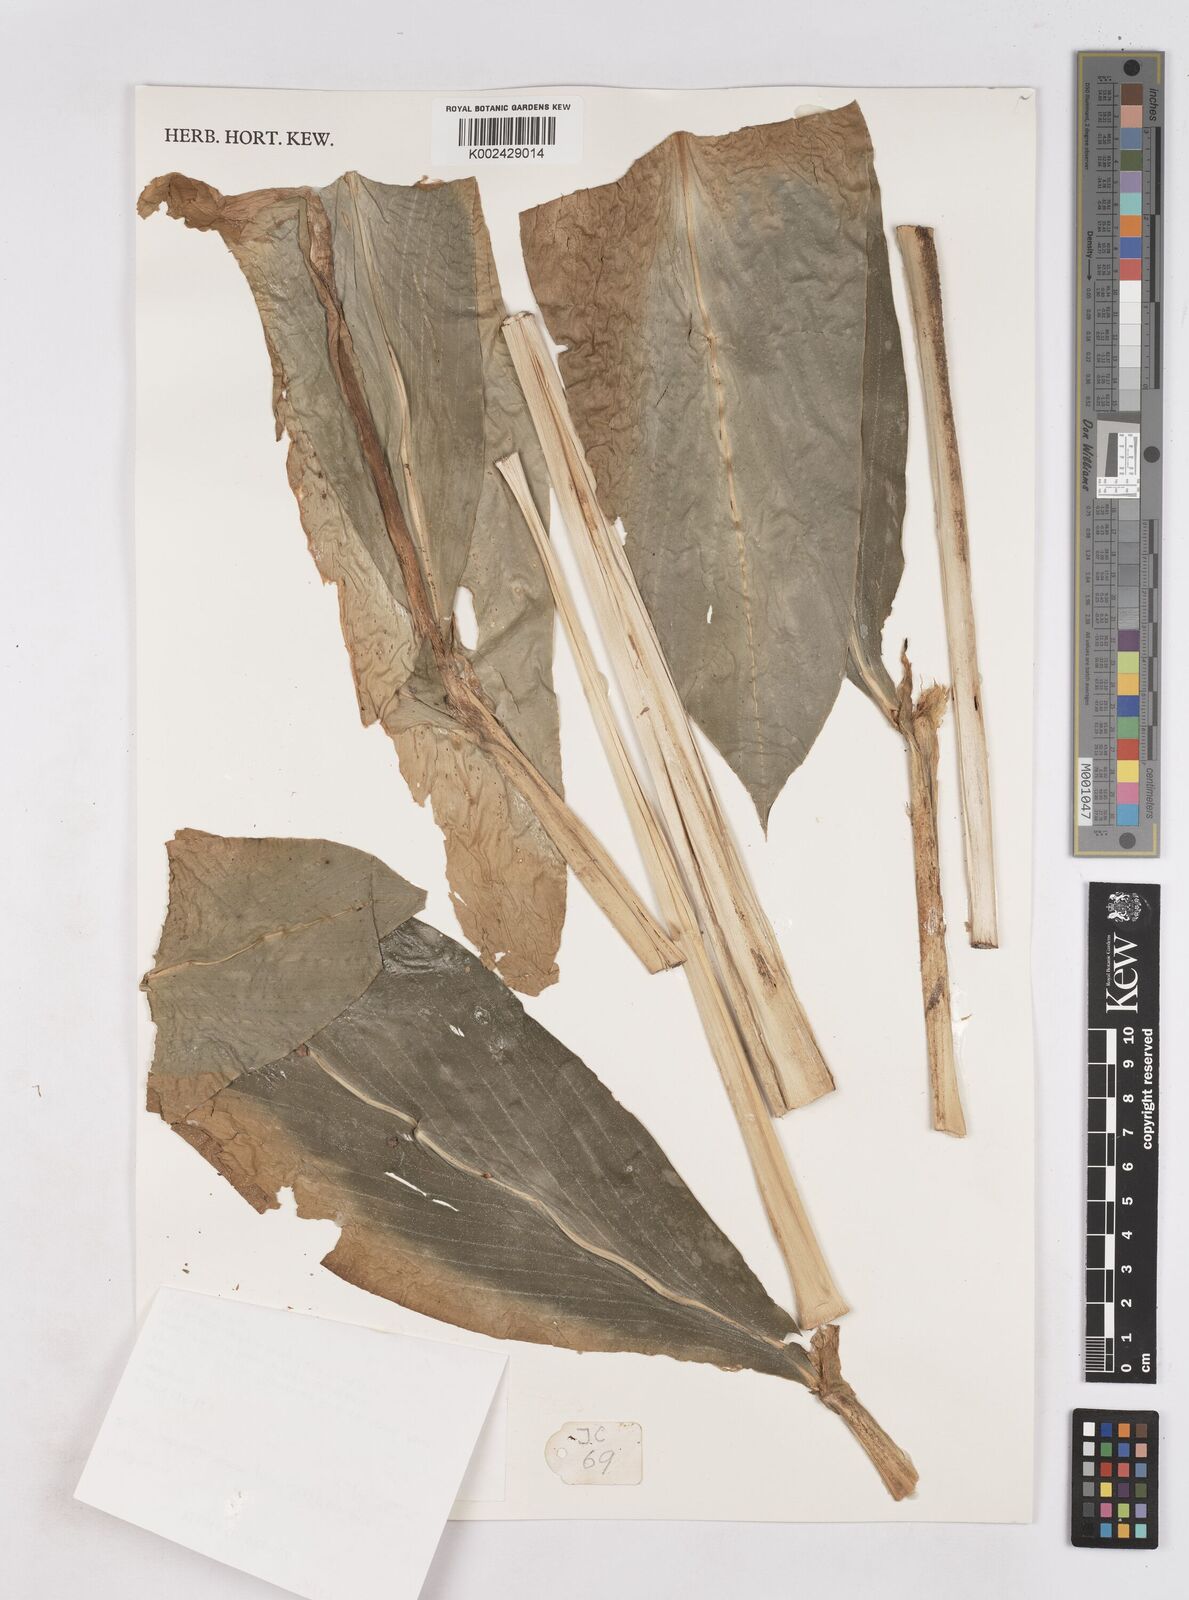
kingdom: Plantae
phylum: Tracheophyta
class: Liliopsida
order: Zingiberales
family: Zingiberaceae
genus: Zingiber
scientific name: Zingiber pseudopungens
